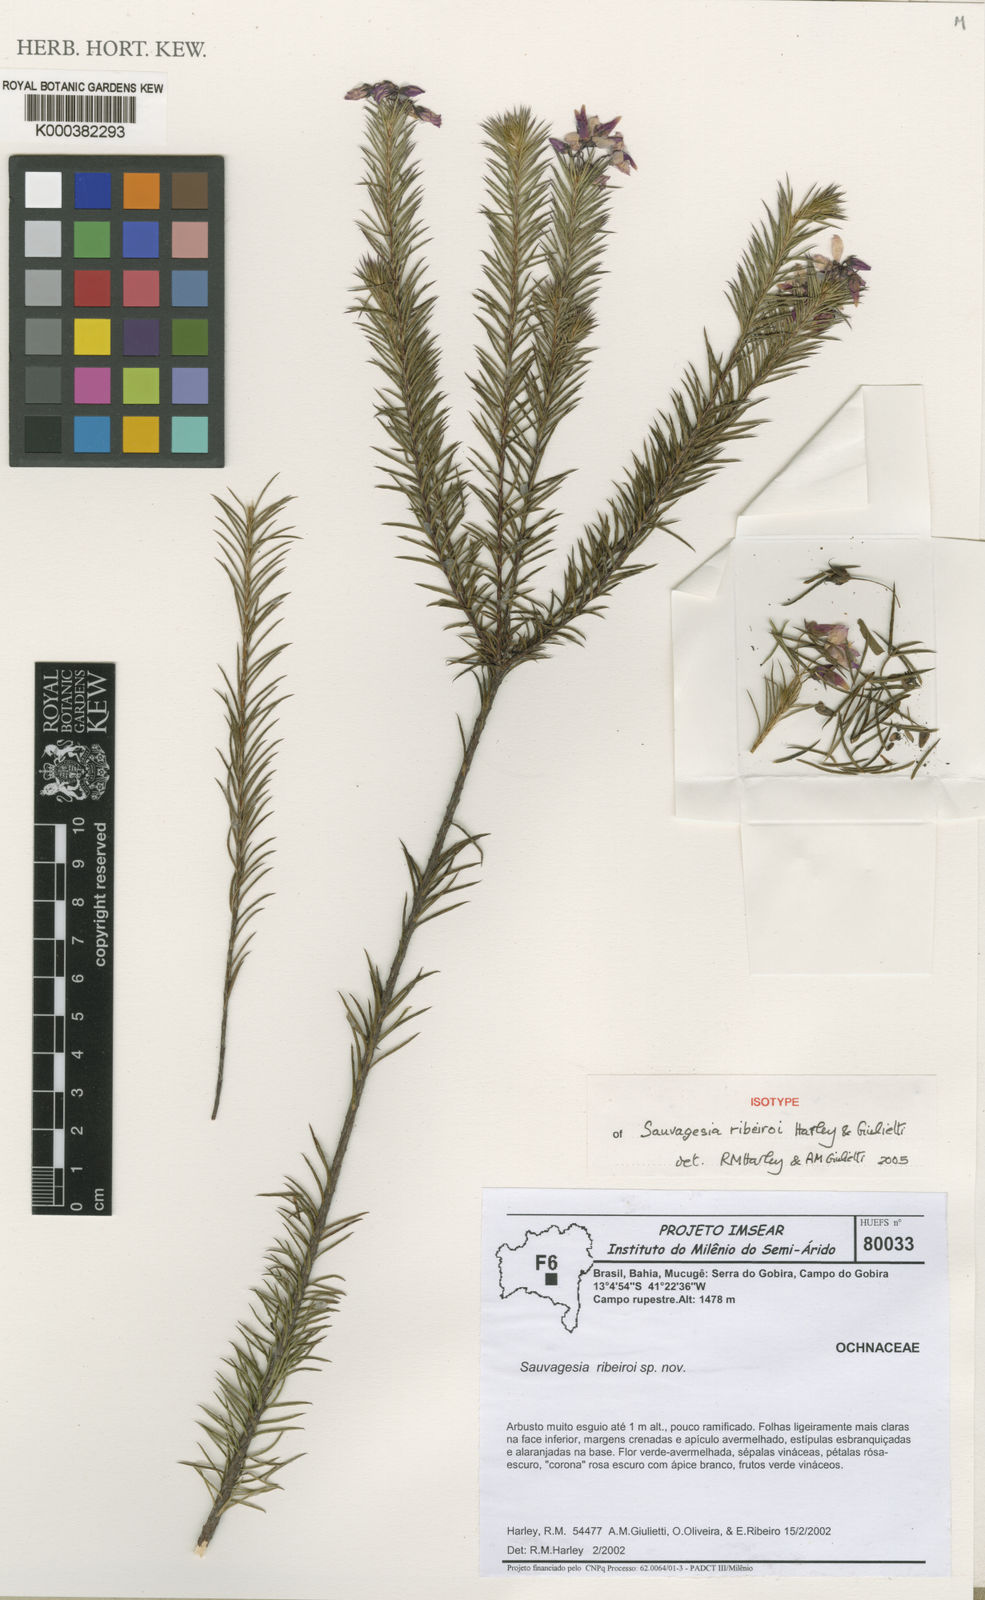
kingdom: Plantae
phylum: Tracheophyta
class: Magnoliopsida
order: Malpighiales
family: Ochnaceae
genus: Sauvagesia
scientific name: Sauvagesia ribeiroi
